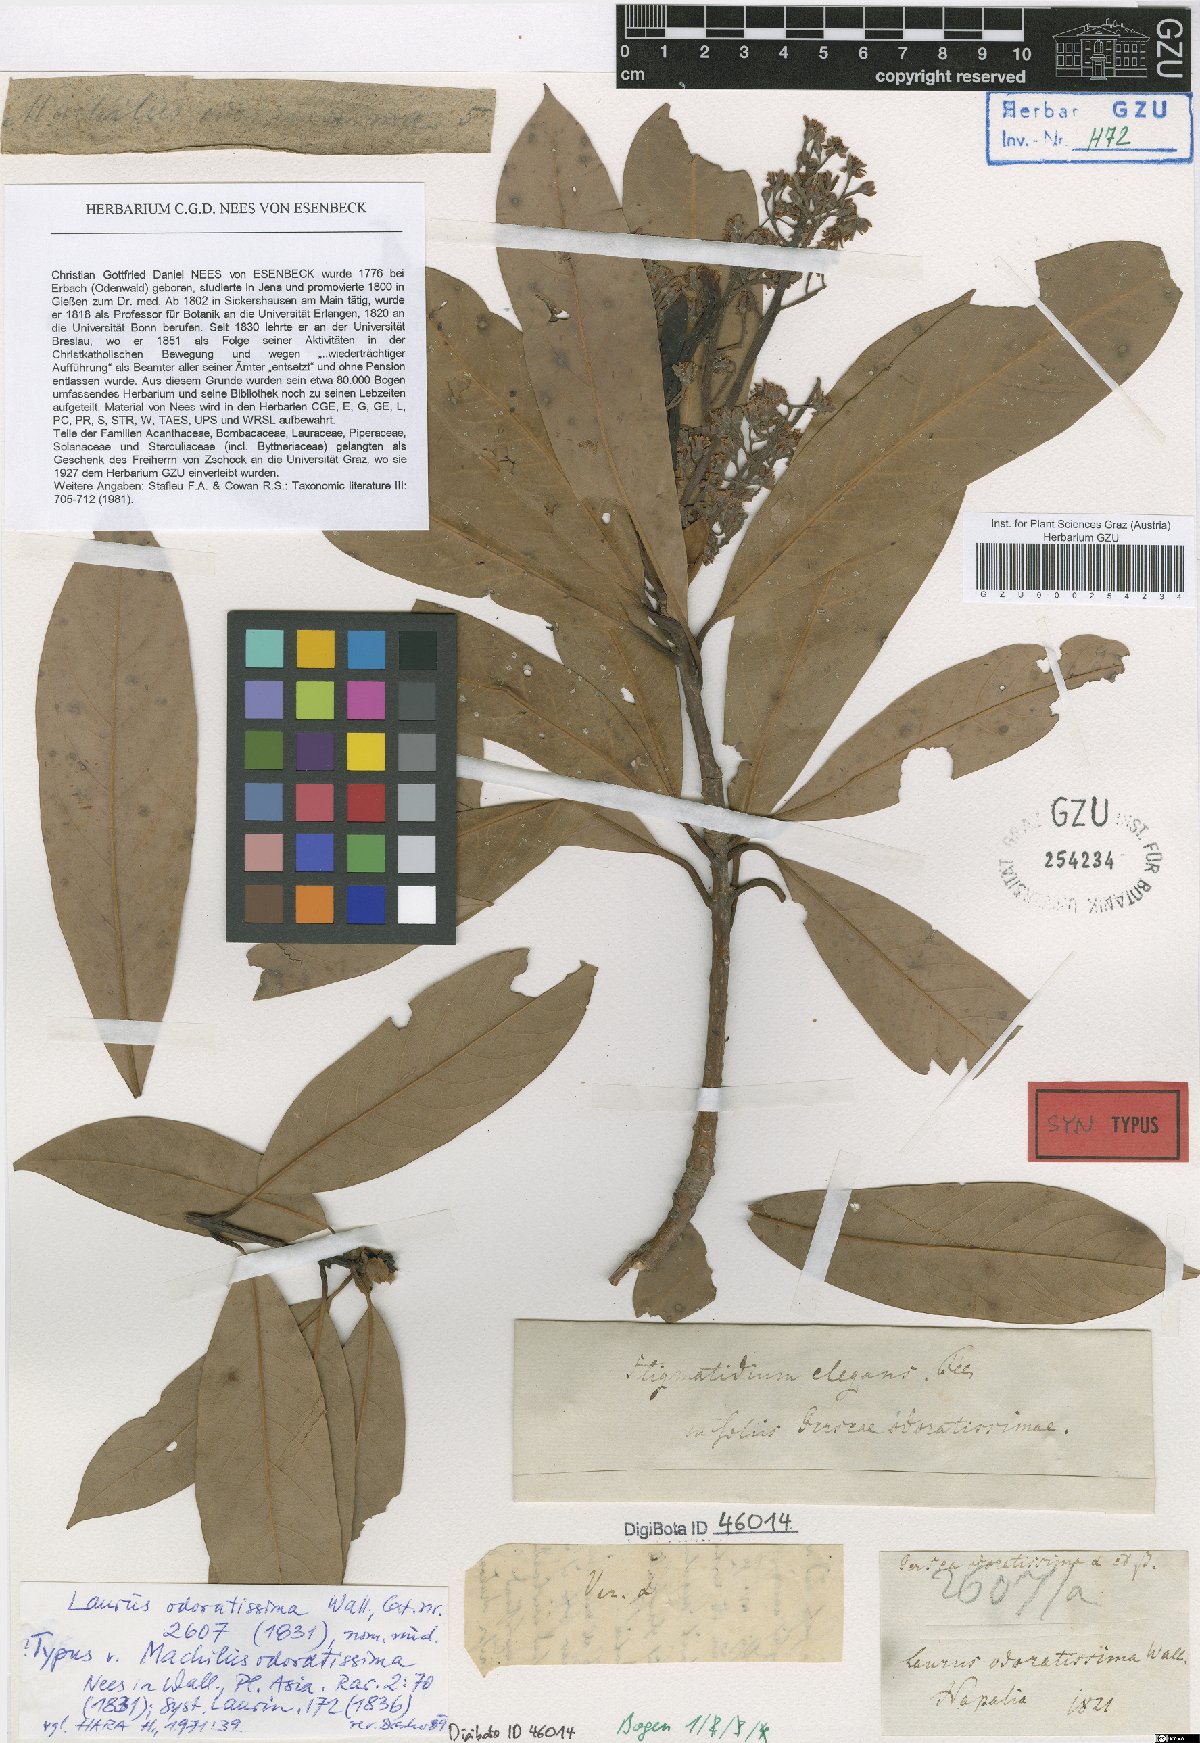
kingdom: Plantae
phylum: Tracheophyta
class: Magnoliopsida
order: Laurales
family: Lauraceae
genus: Machilus
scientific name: Machilus odoratissimus
